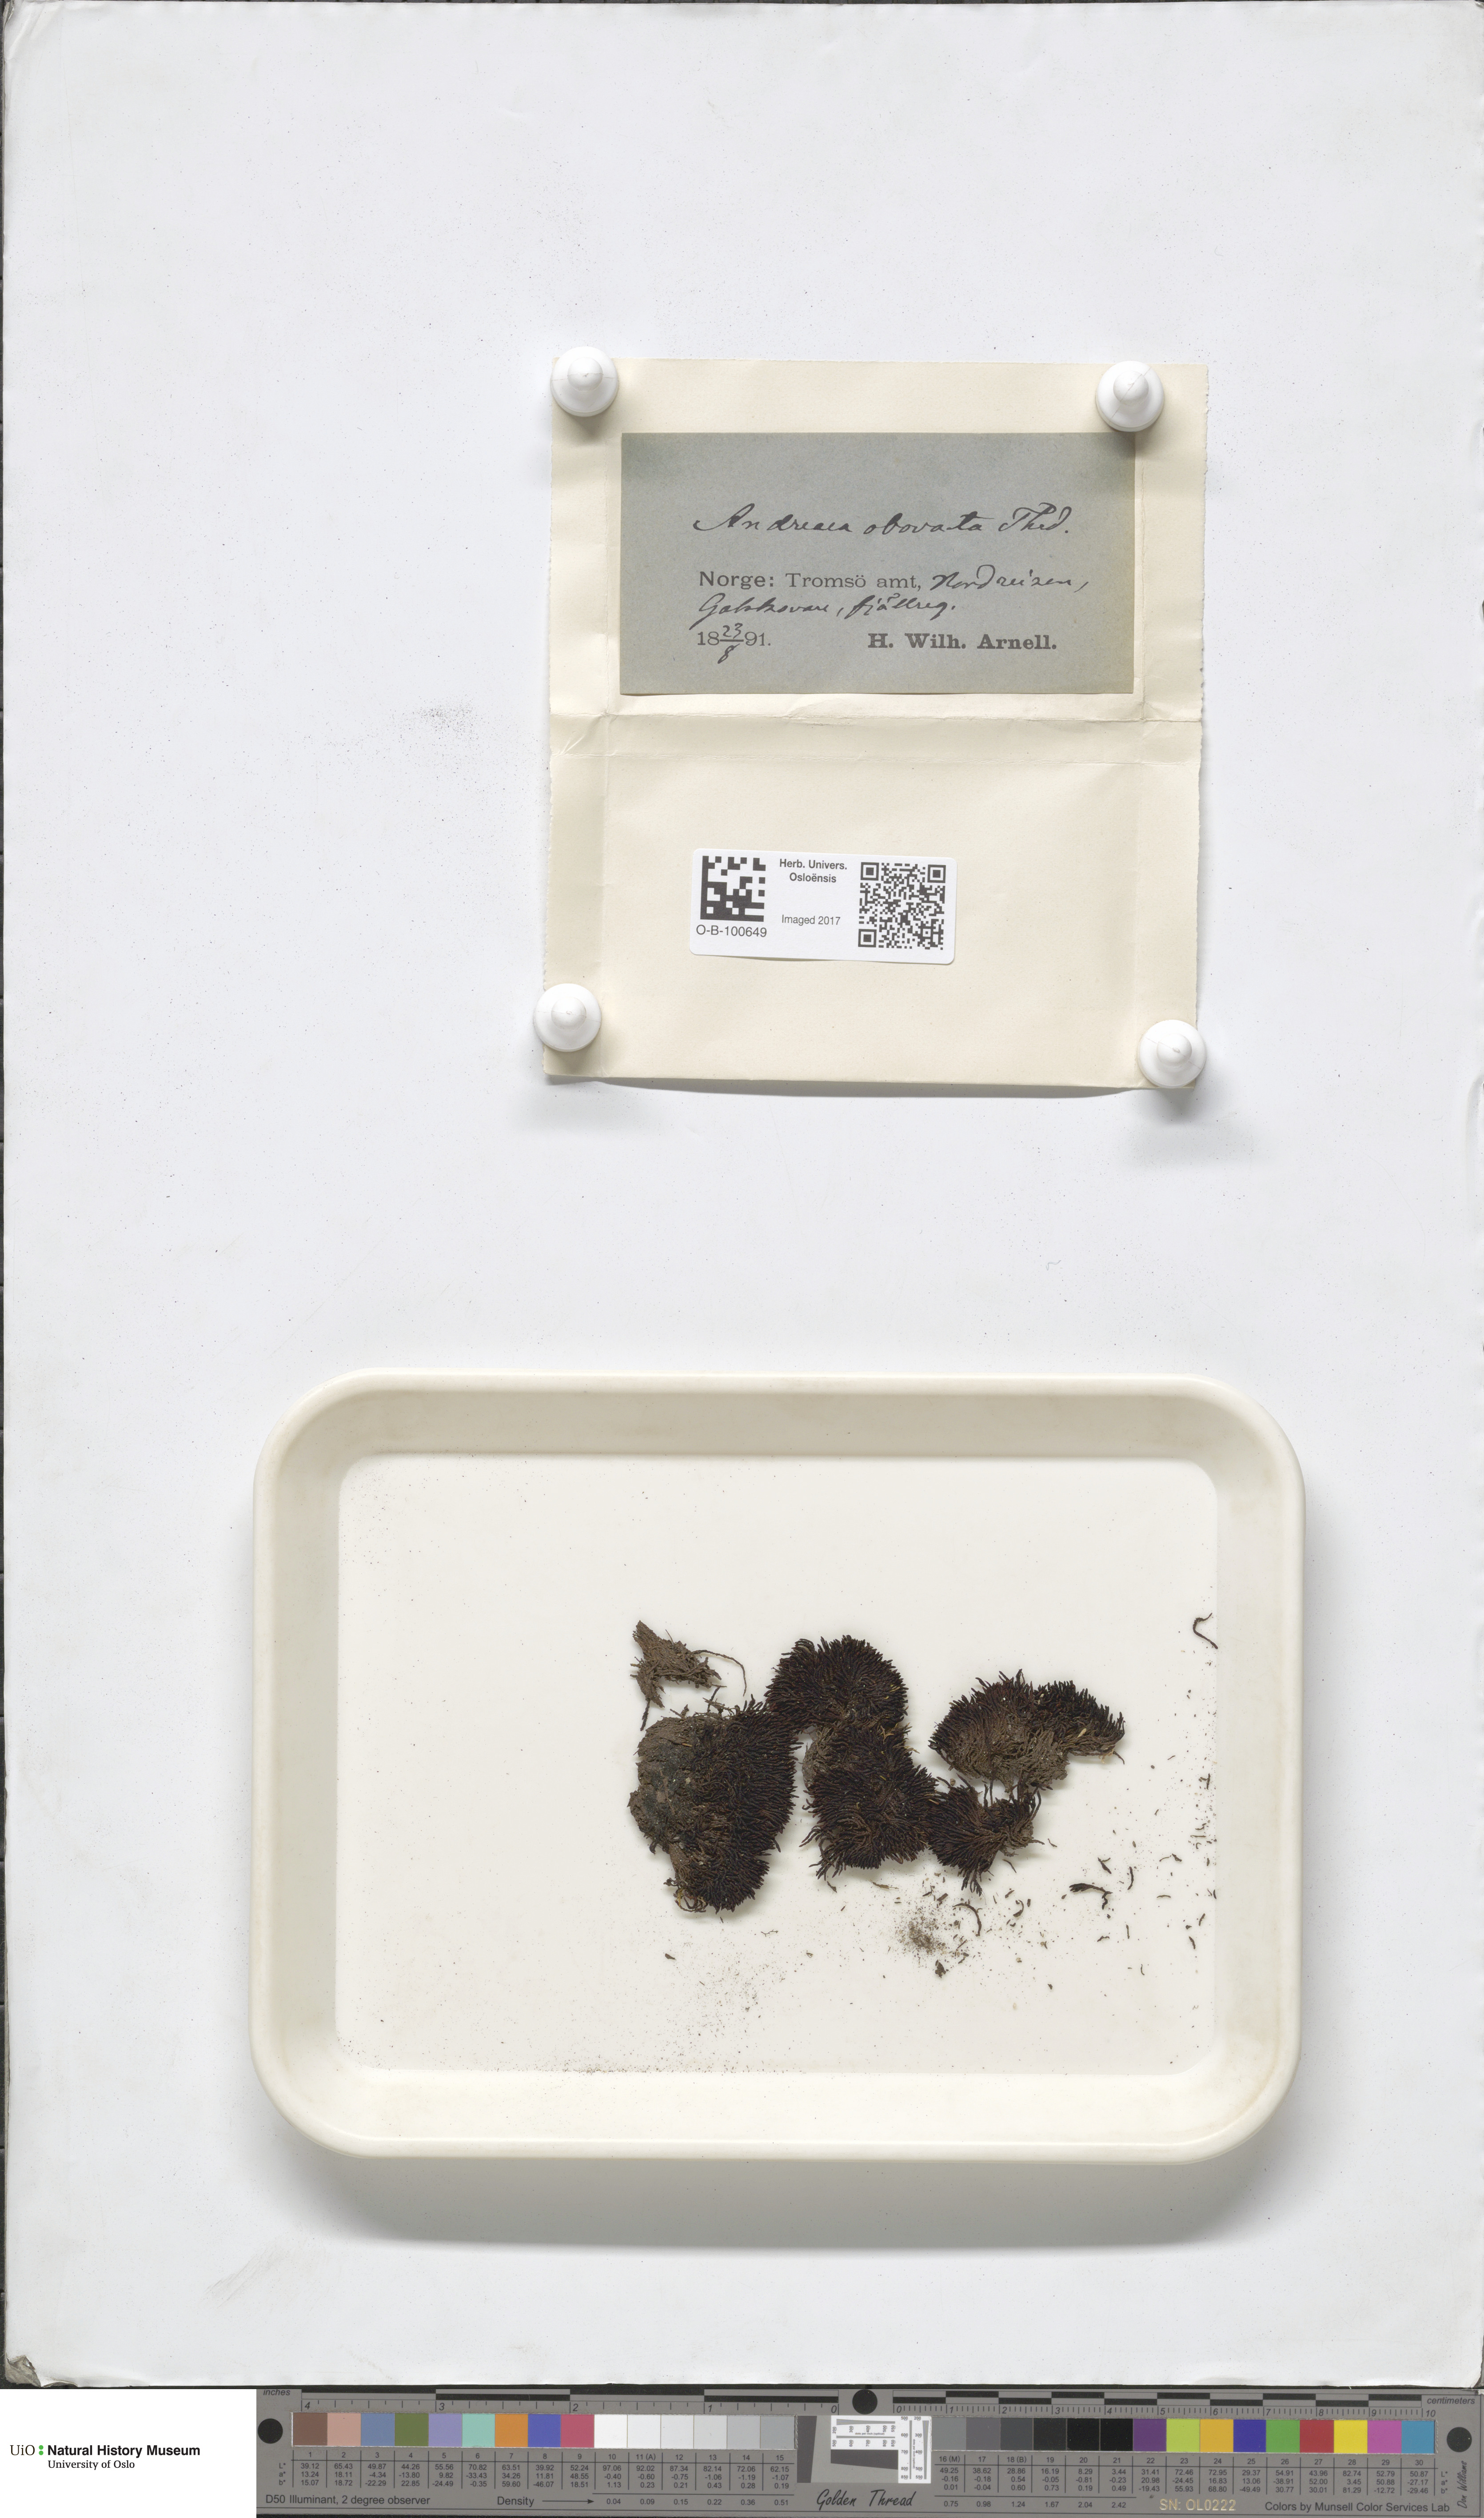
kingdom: Plantae
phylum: Bryophyta
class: Andreaeopsida
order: Andreaeales
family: Andreaeaceae
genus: Andreaea
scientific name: Andreaea alpina
